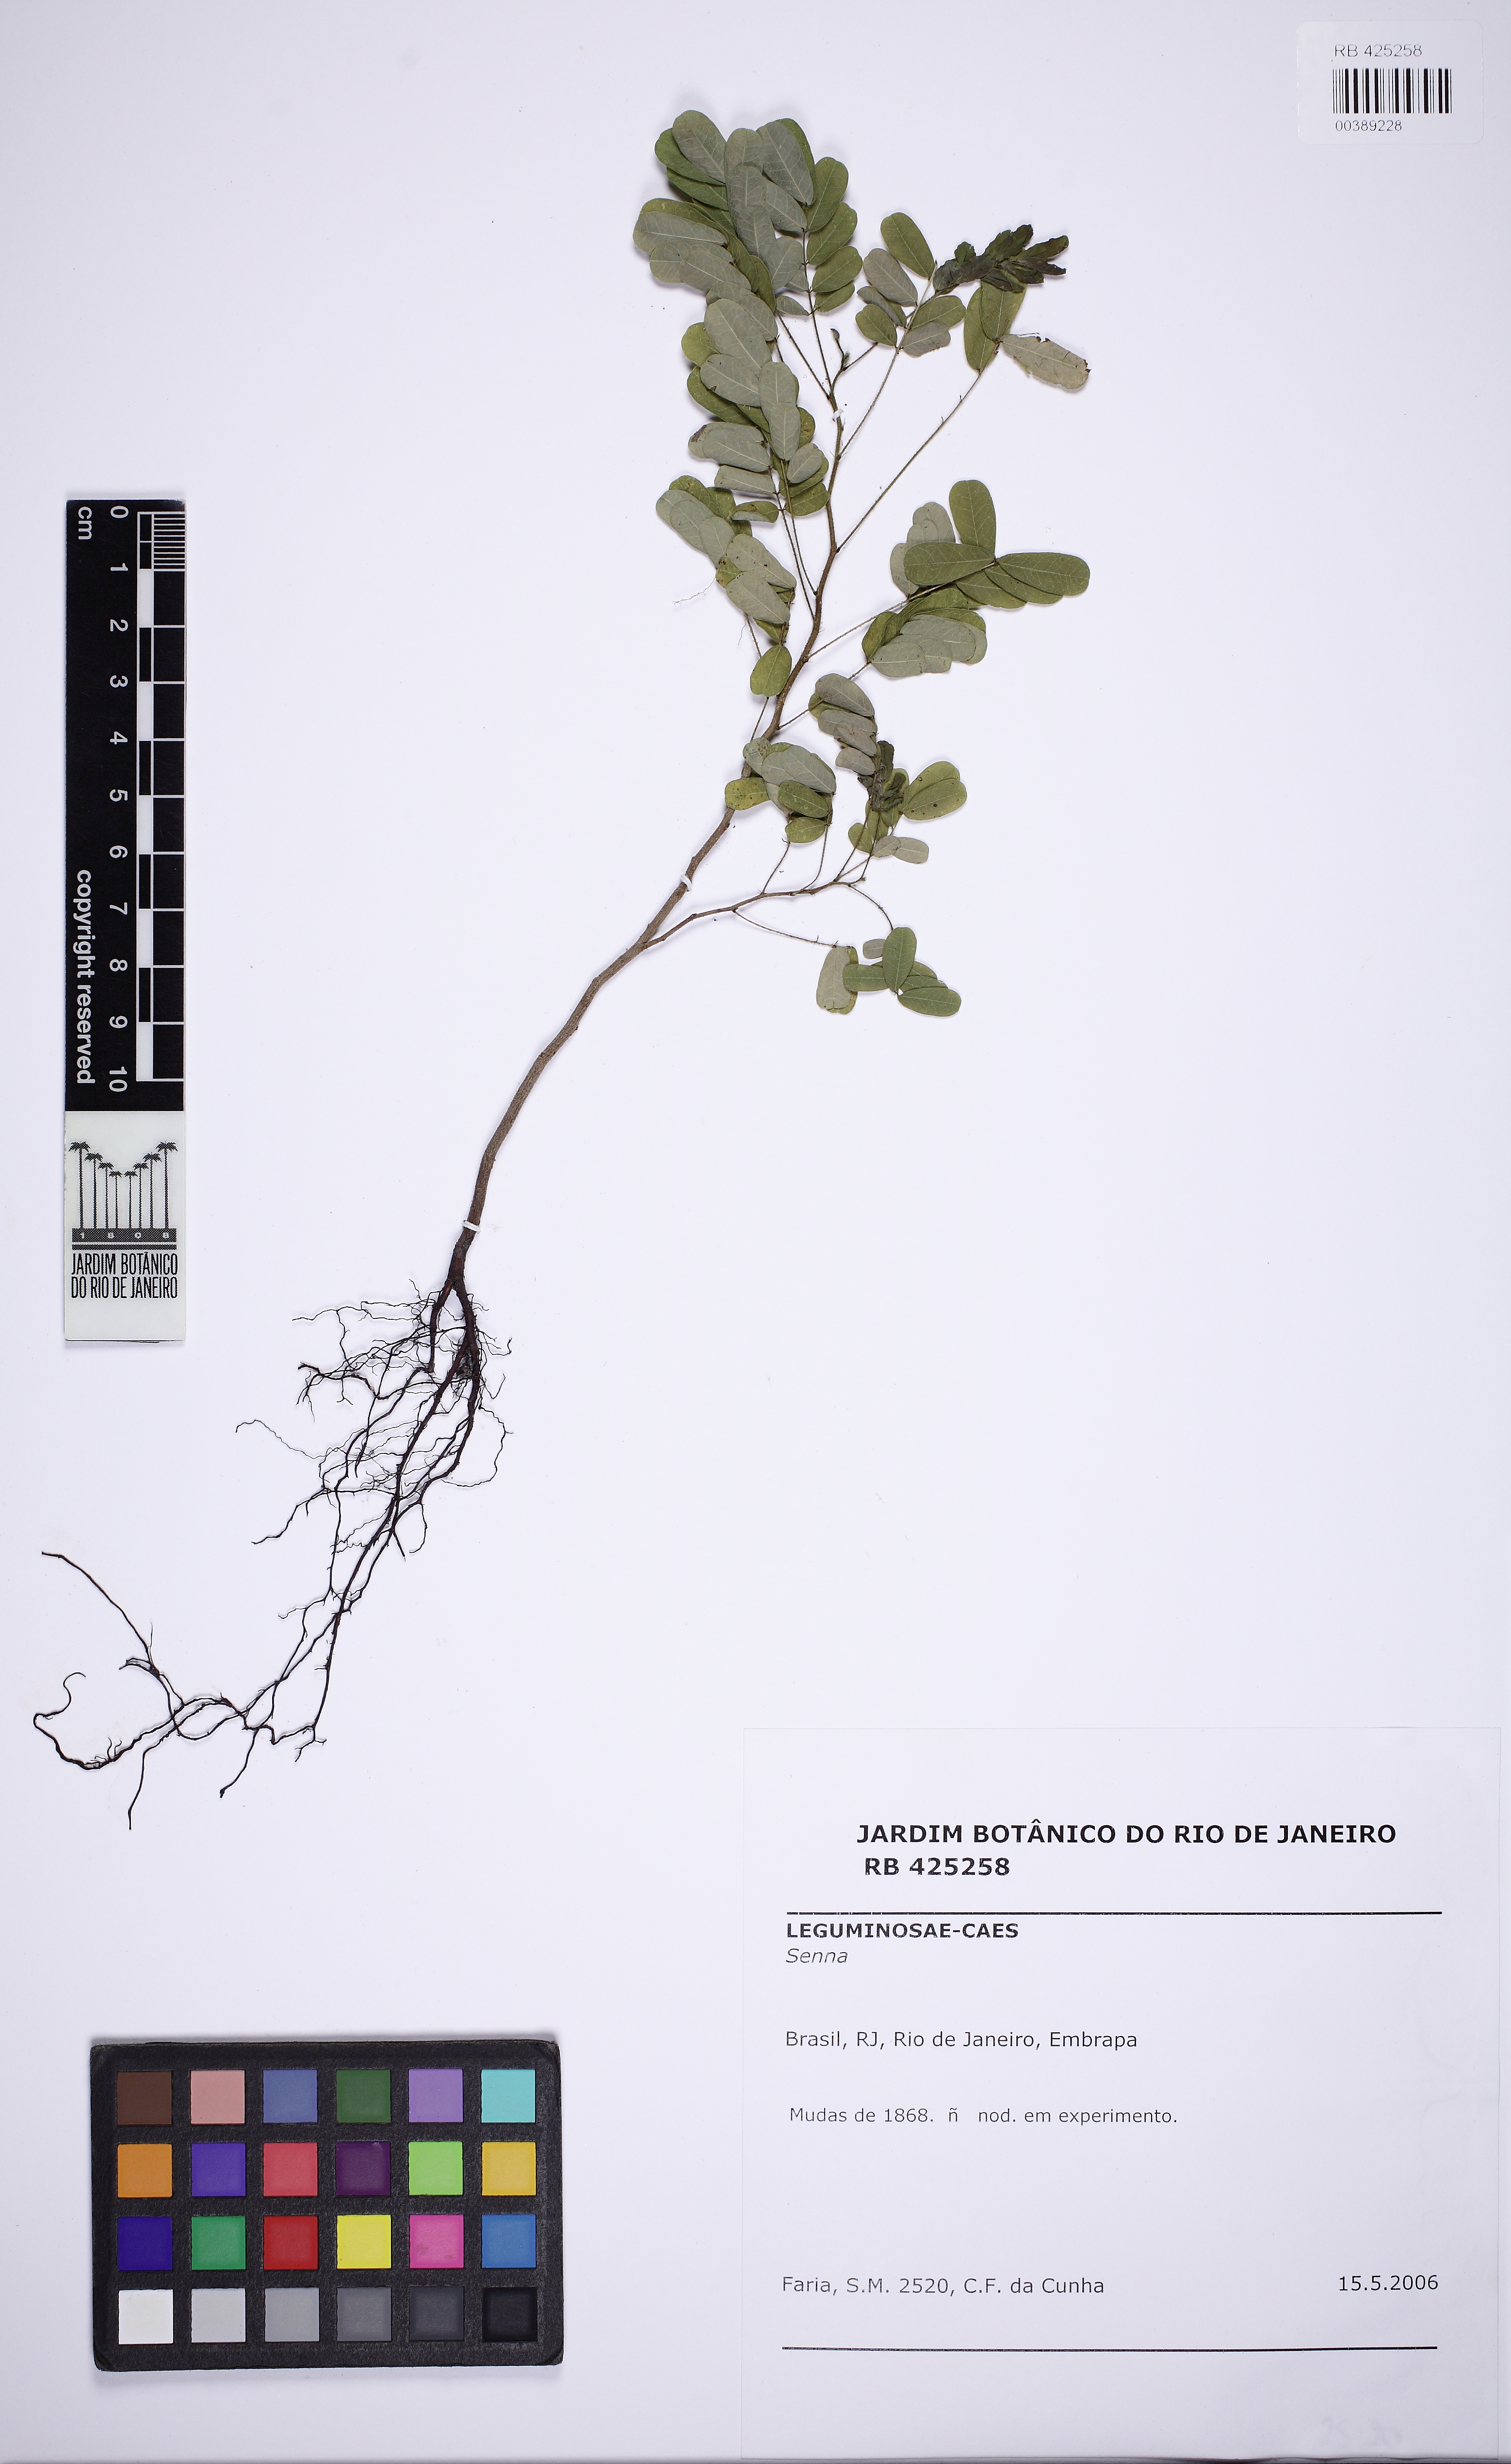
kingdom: Plantae
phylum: Tracheophyta
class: Magnoliopsida
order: Fabales
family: Fabaceae
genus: Senna
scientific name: Senna
